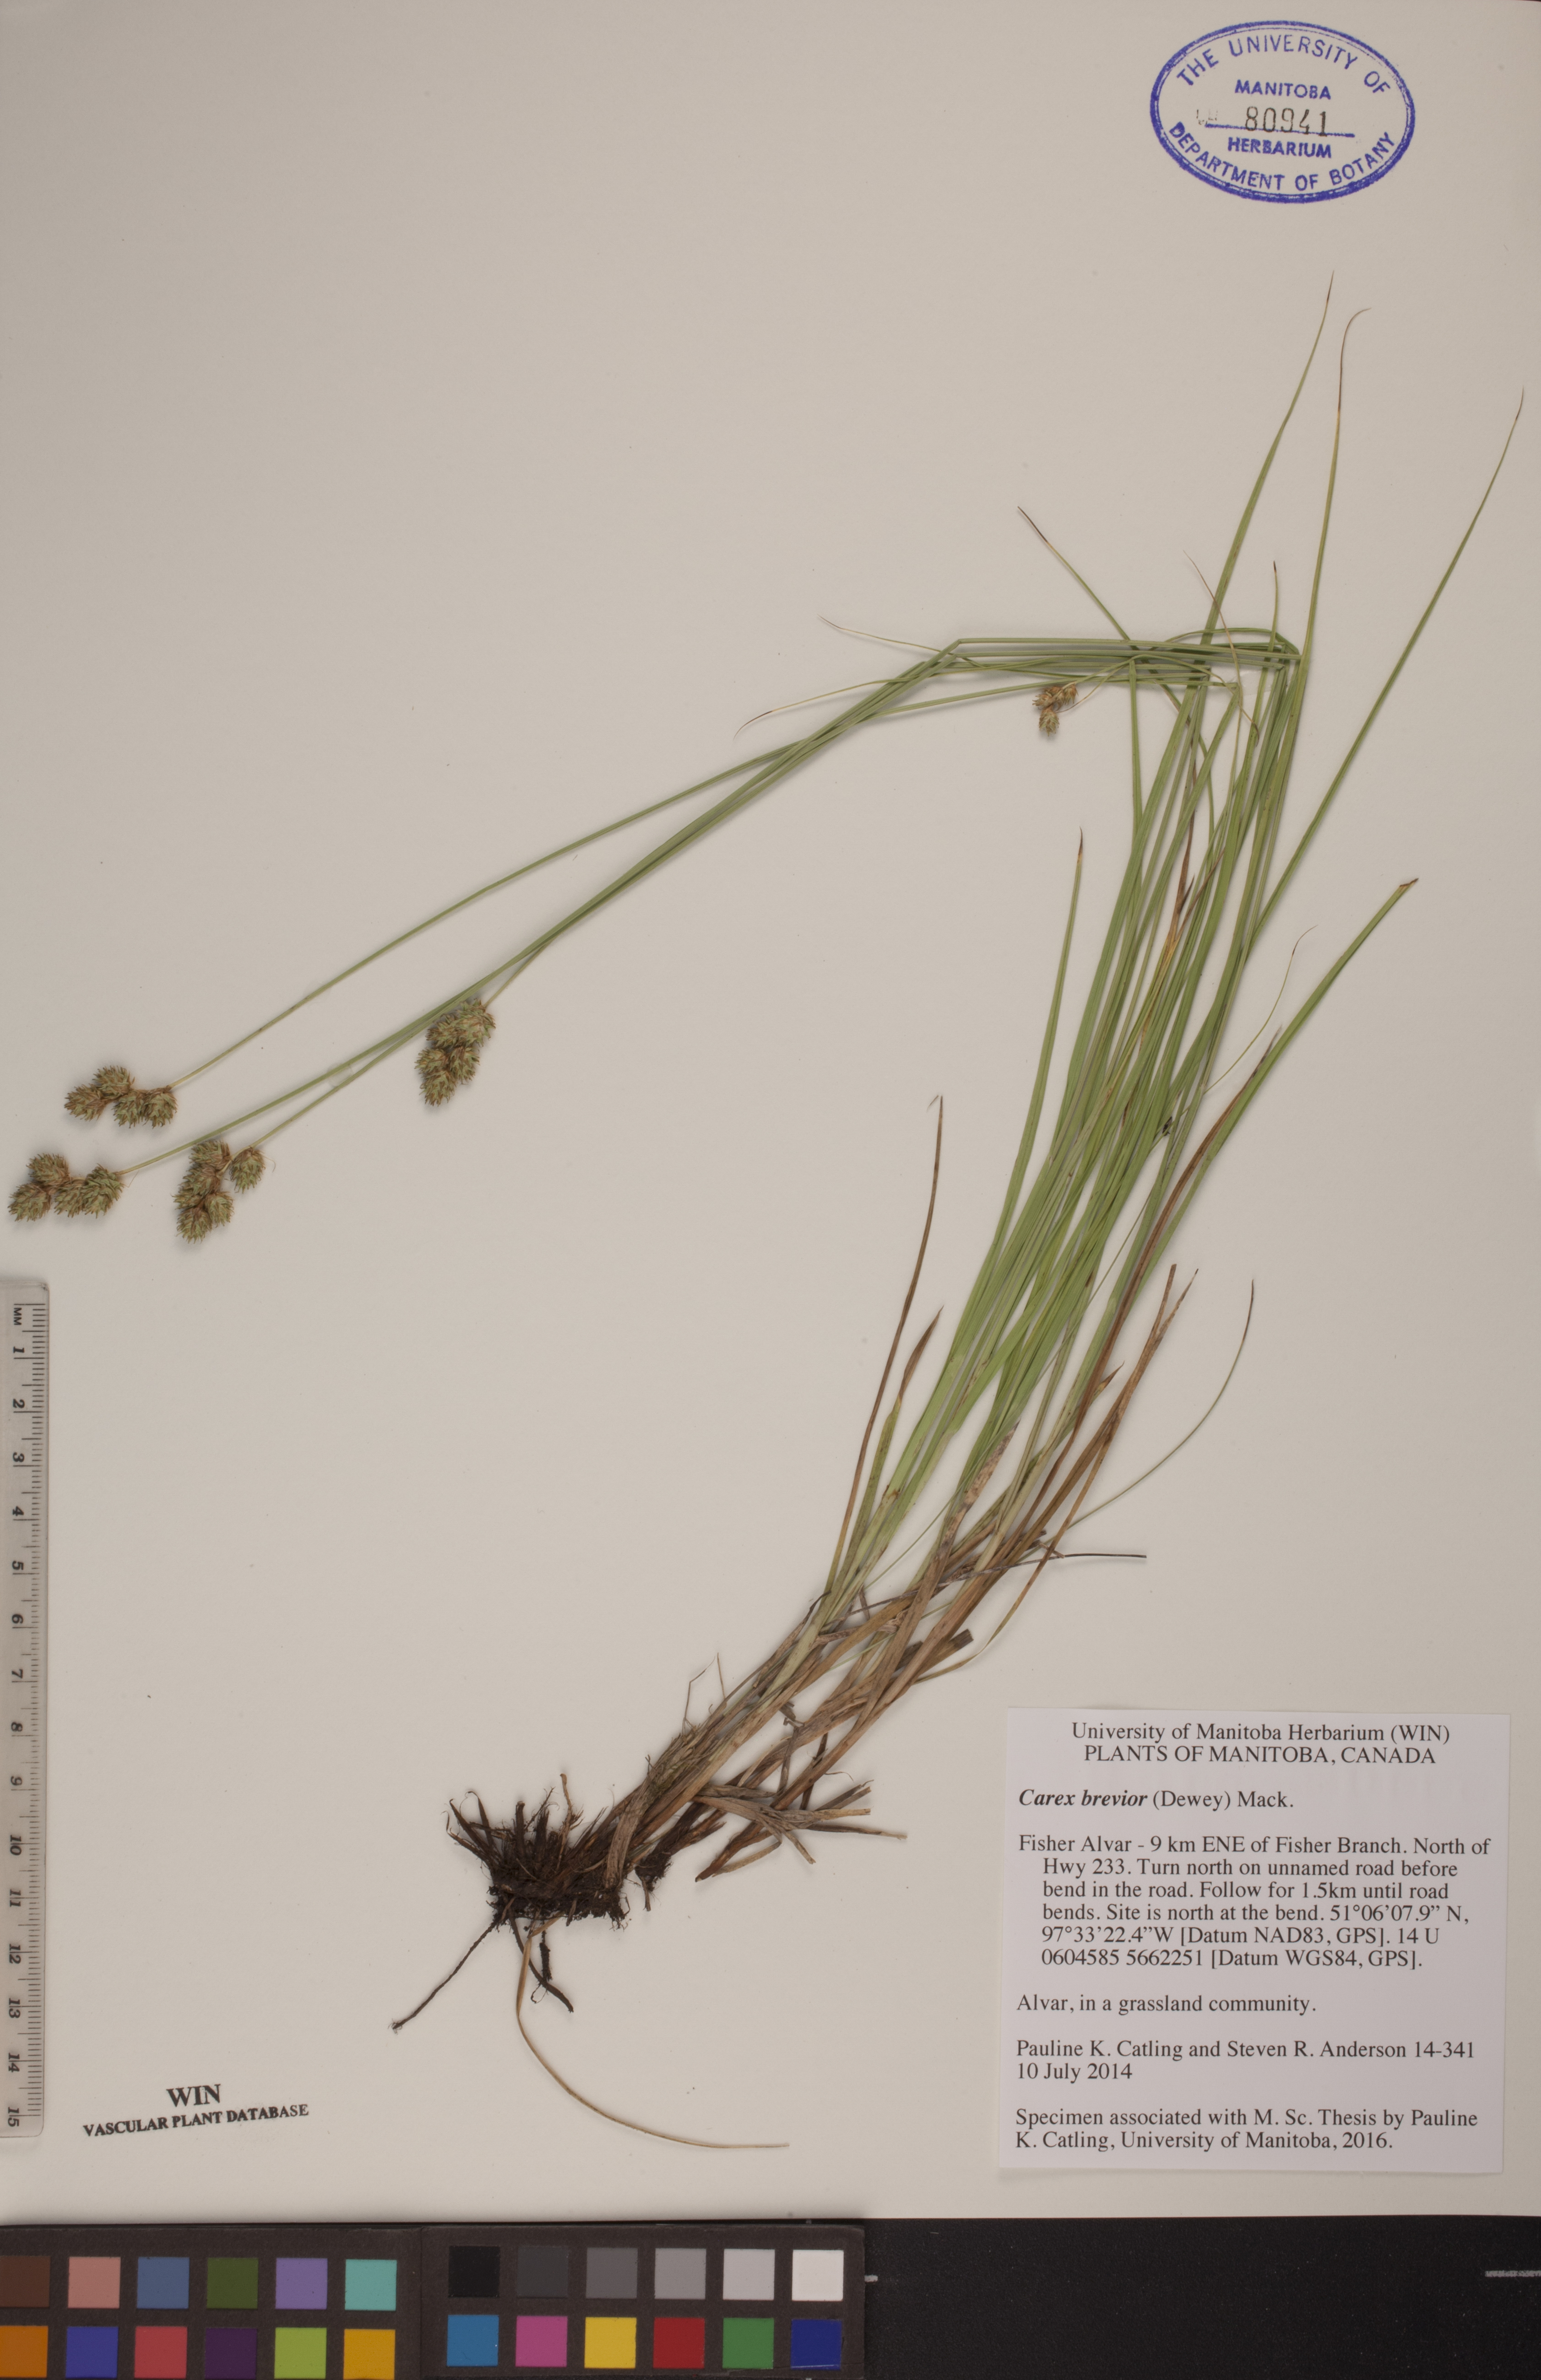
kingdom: Plantae
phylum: Tracheophyta
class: Liliopsida
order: Poales
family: Cyperaceae
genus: Carex
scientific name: Carex brevior
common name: Brevior sedge
